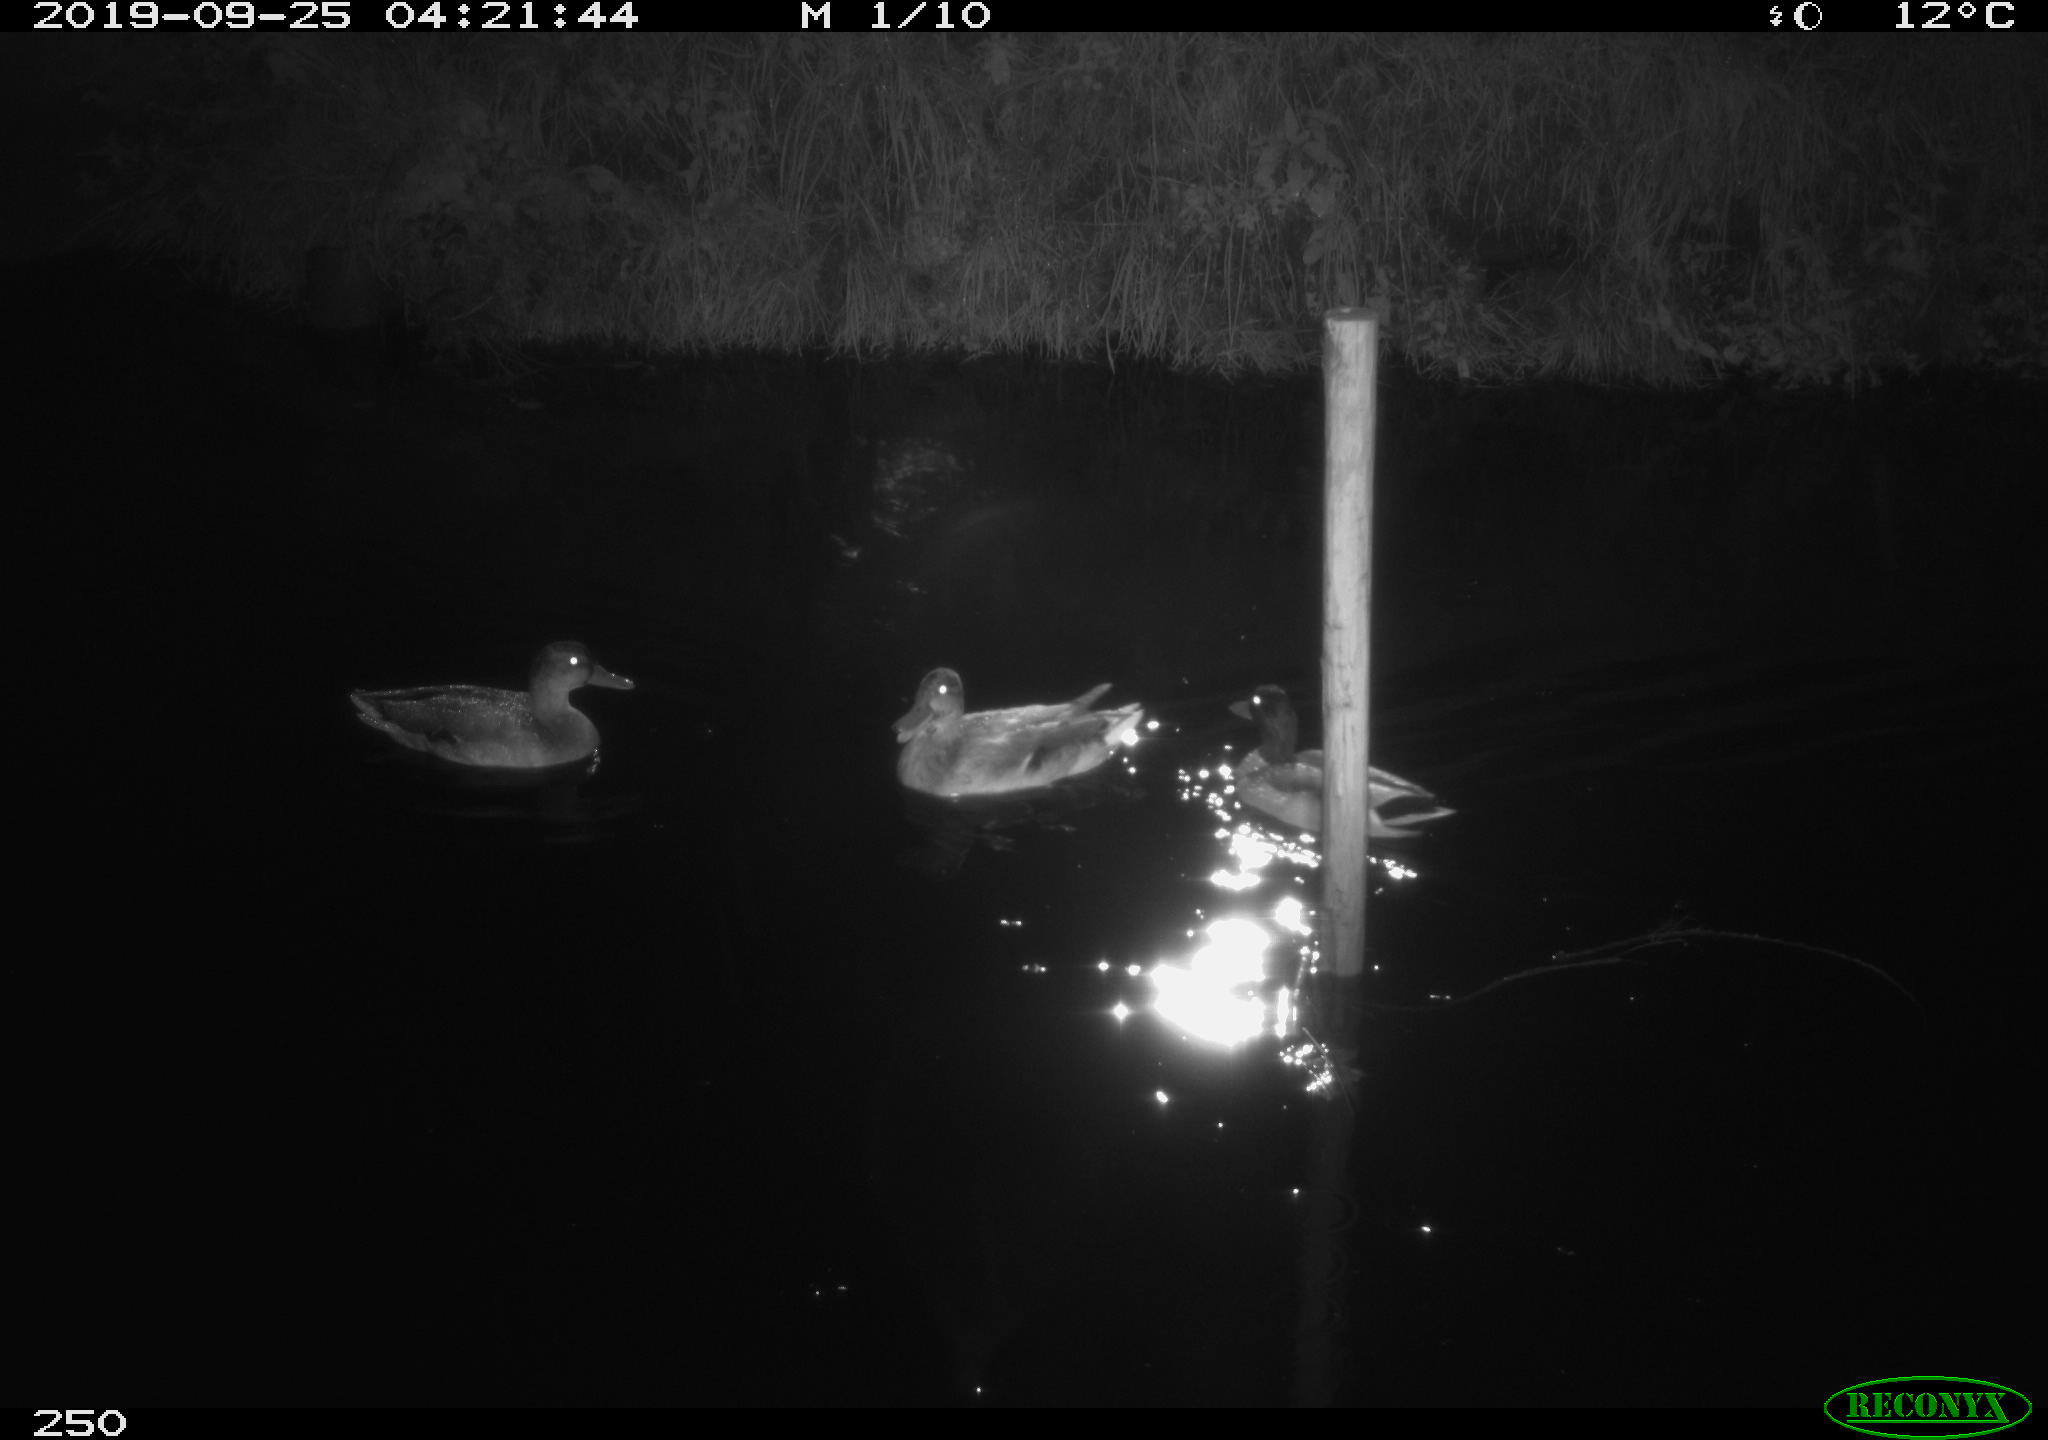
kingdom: Animalia
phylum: Chordata
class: Aves
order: Anseriformes
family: Anatidae
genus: Anas
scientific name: Anas platyrhynchos
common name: Mallard
